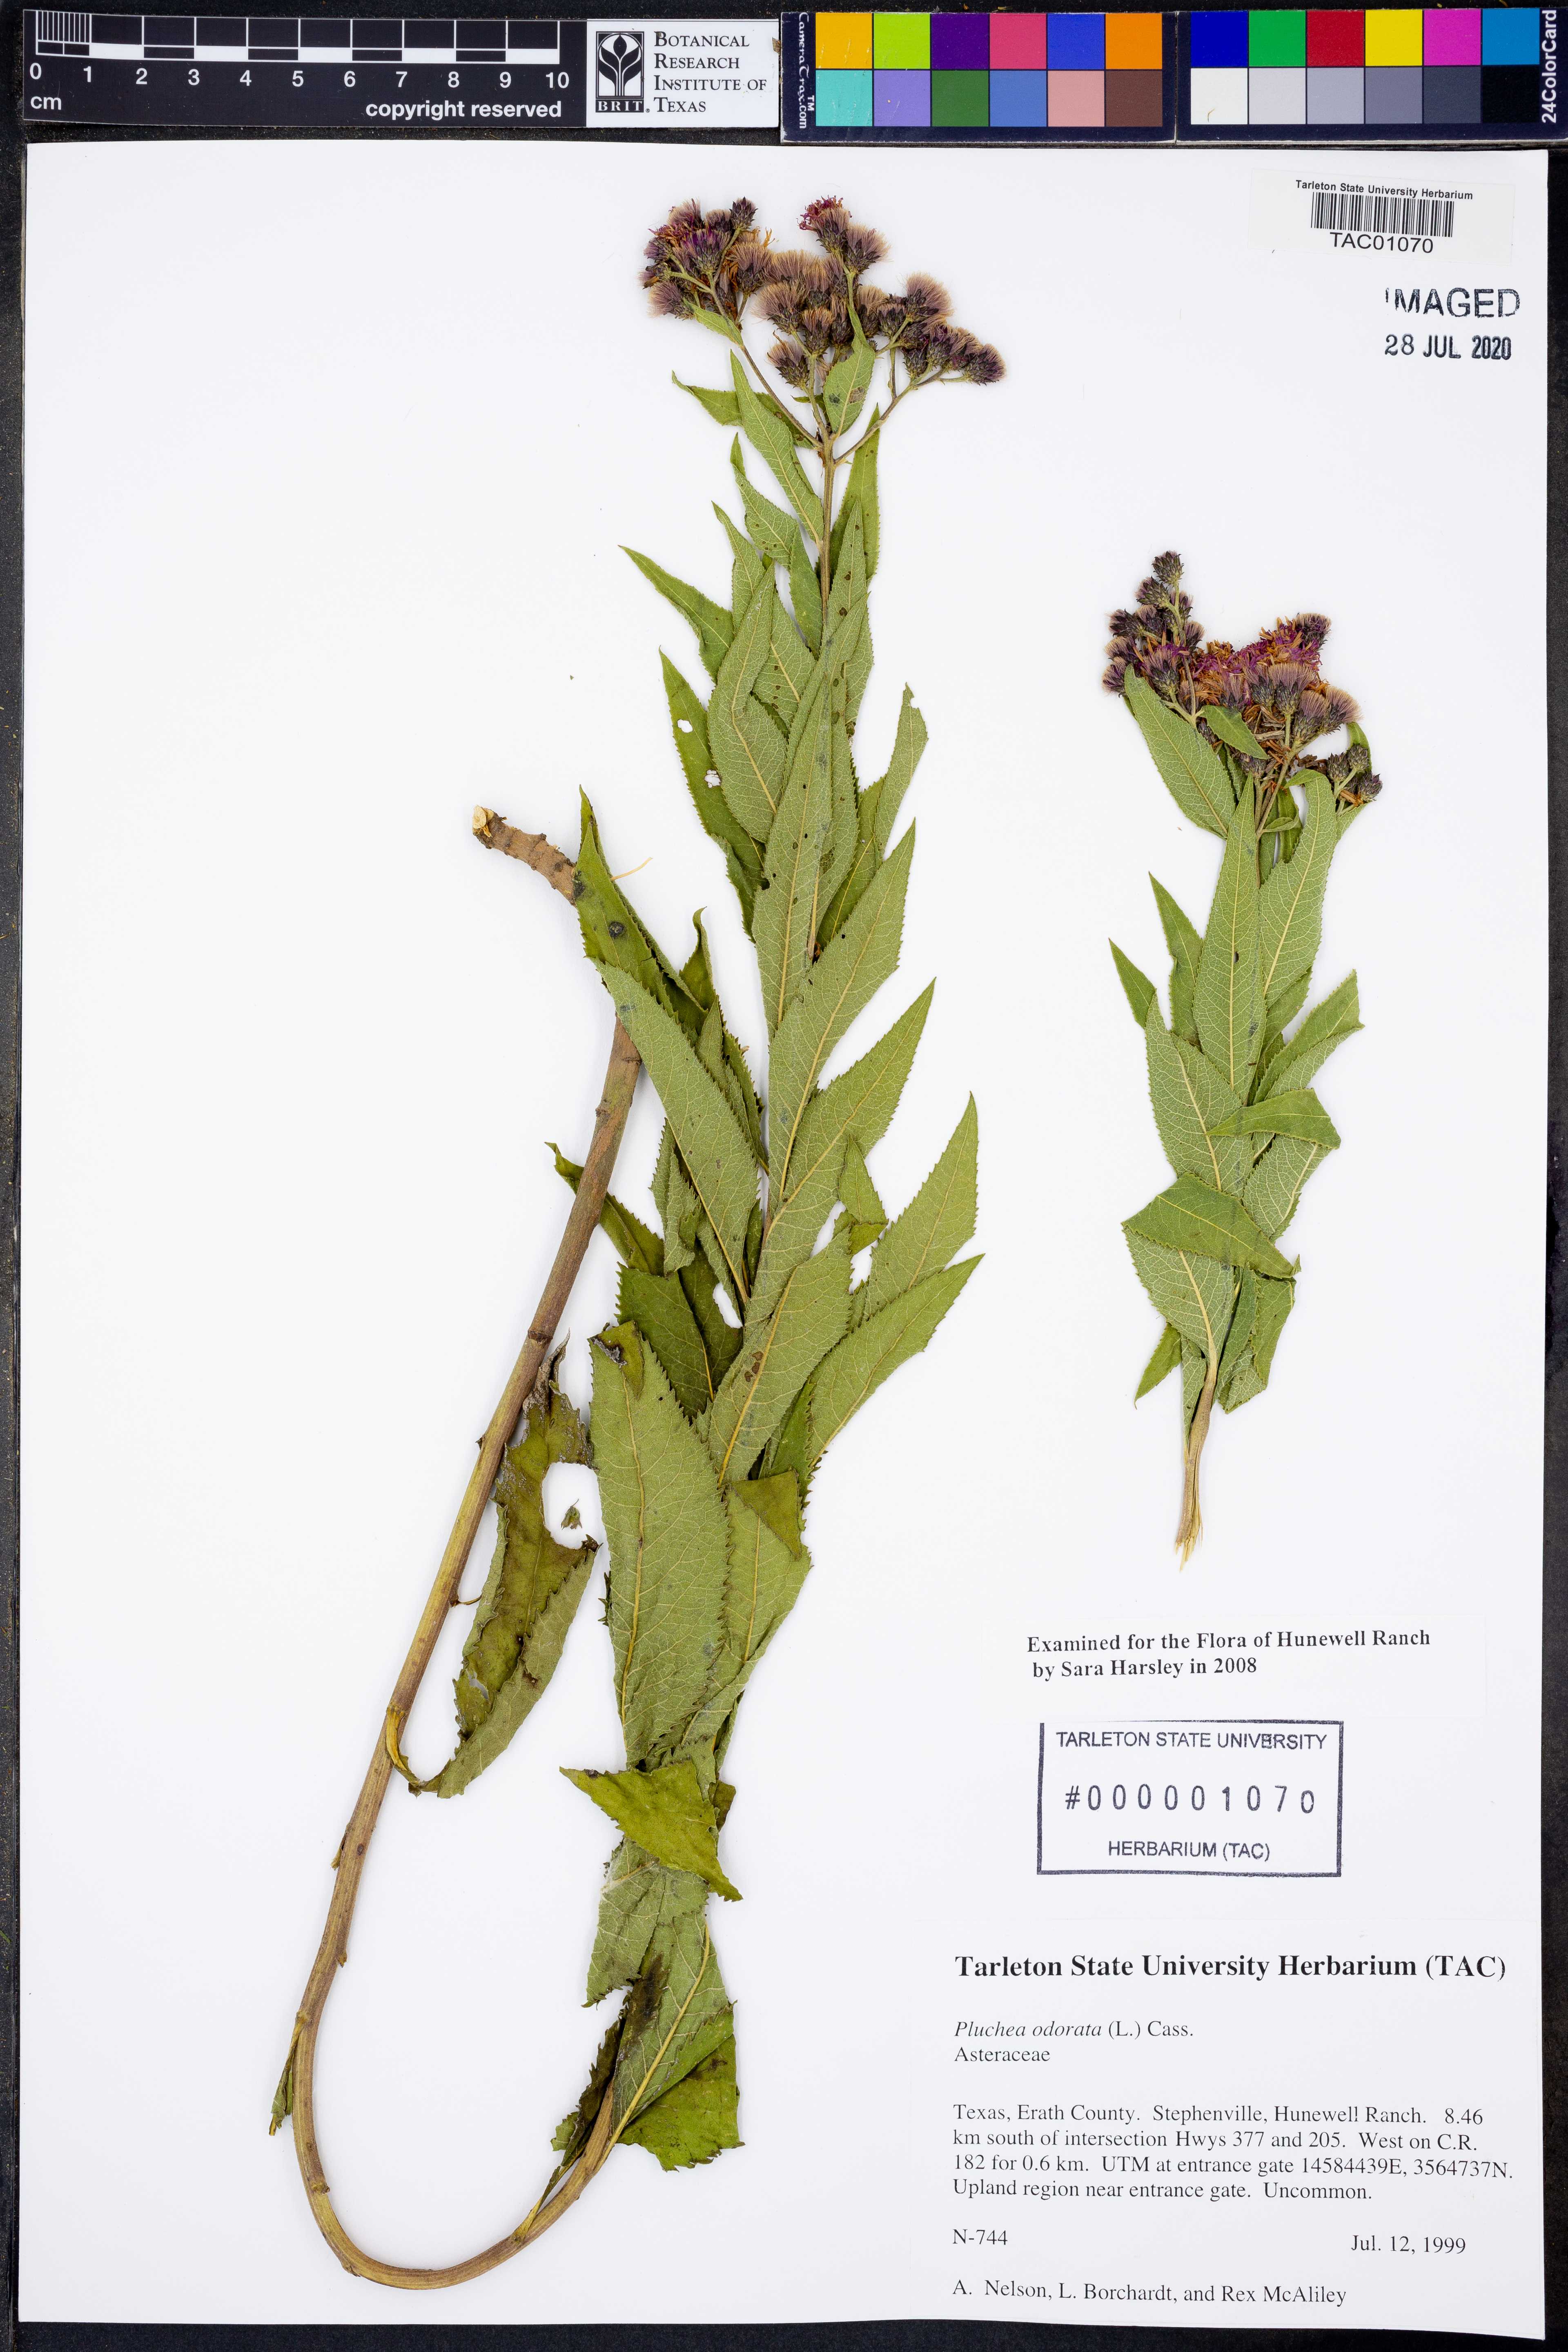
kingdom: Plantae
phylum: Tracheophyta
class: Magnoliopsida
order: Asterales
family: Asteraceae
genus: Pluchea
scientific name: Pluchea odorata
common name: Saltmarsh fleabane
